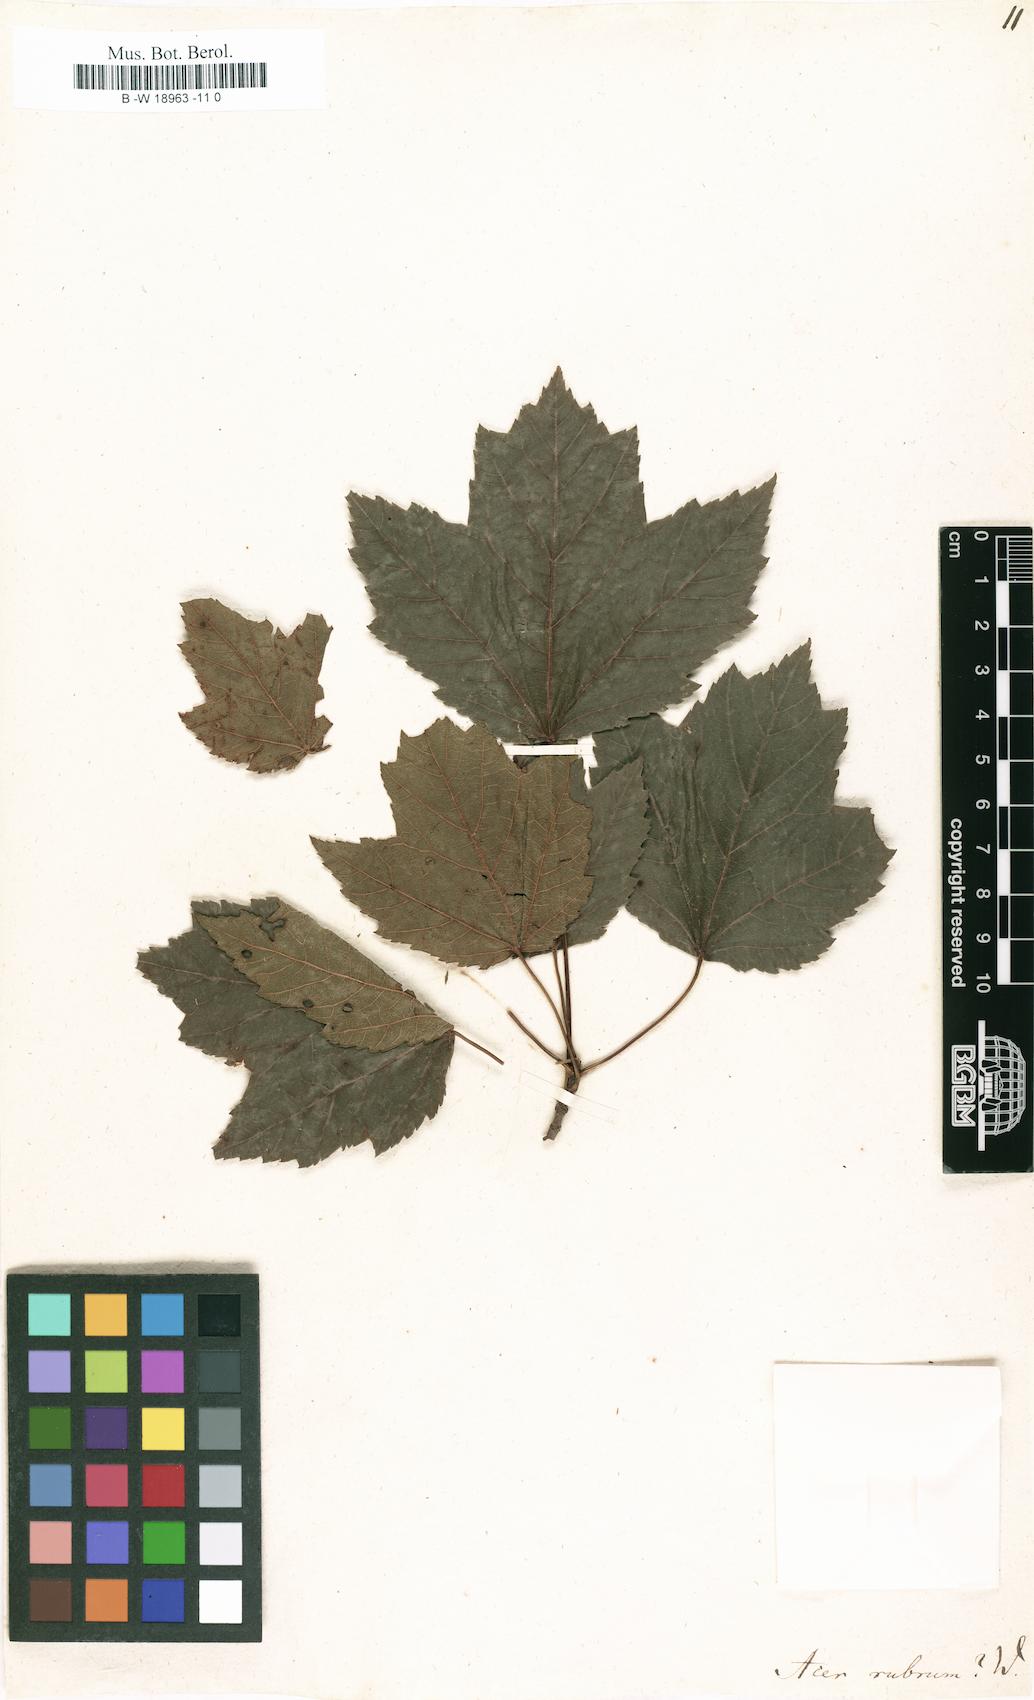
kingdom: Plantae
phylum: Tracheophyta
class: Magnoliopsida
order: Sapindales
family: Sapindaceae
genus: Acer
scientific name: Acer rubrum
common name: Red maple
